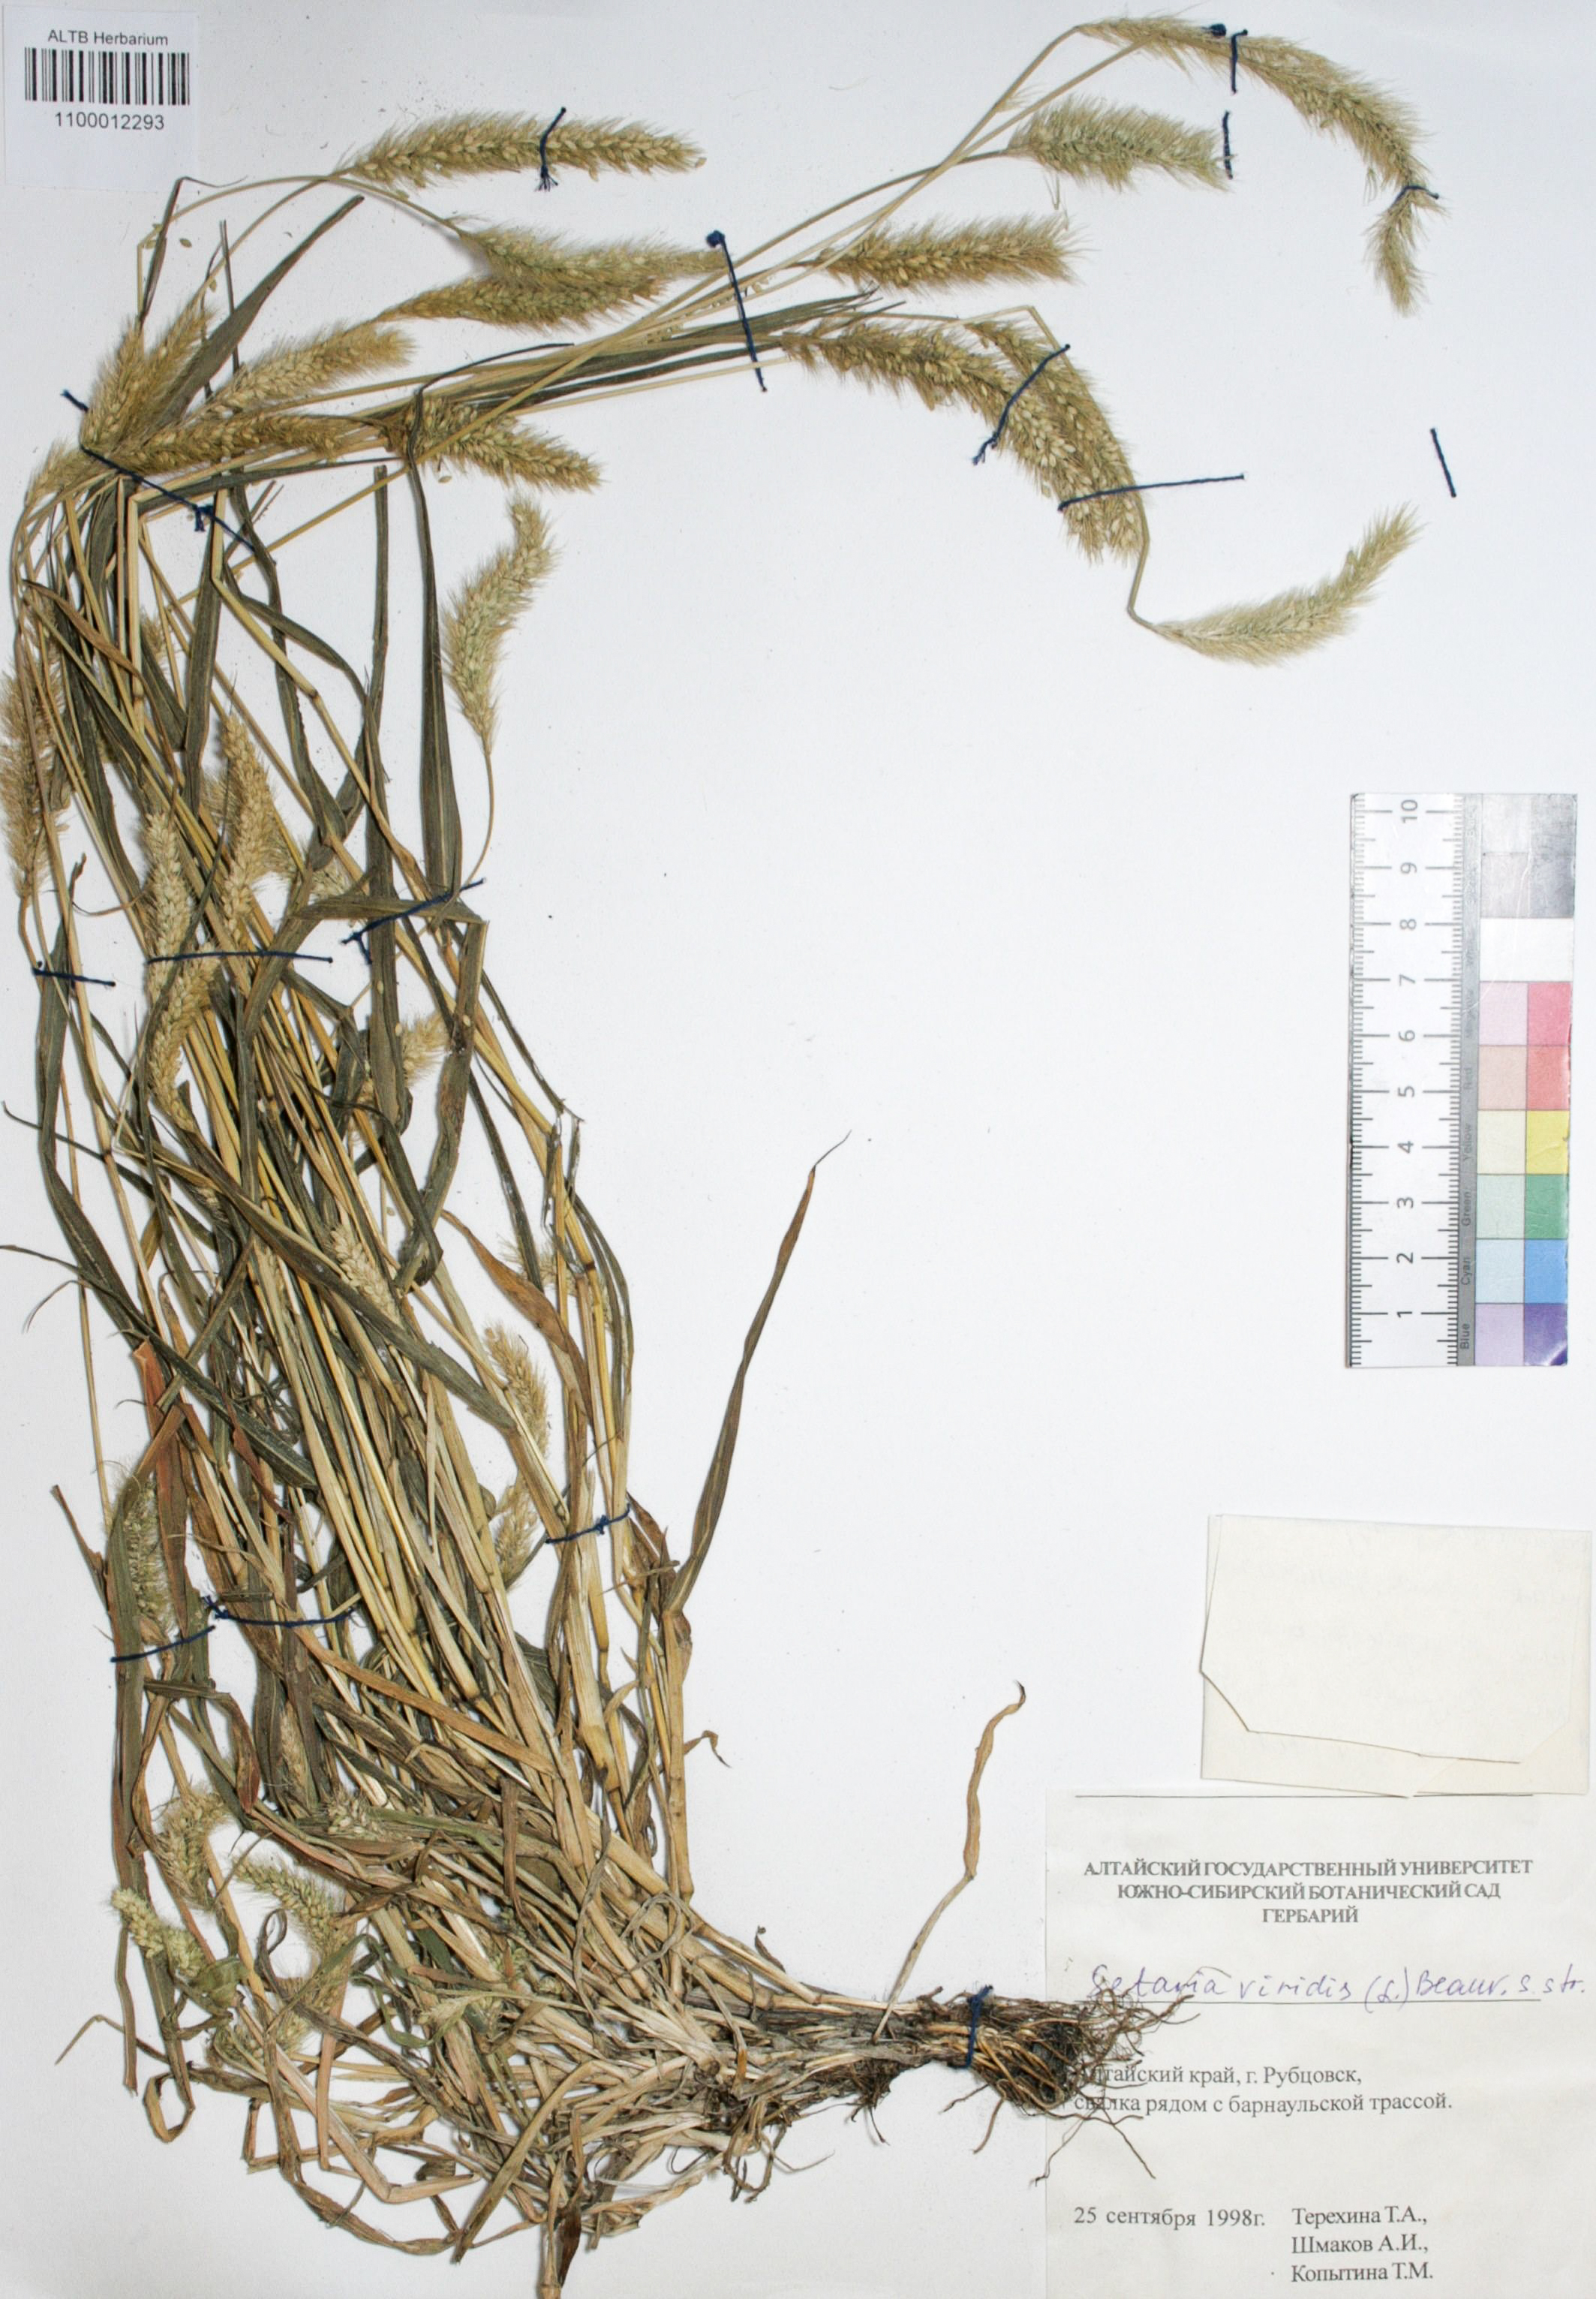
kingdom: Plantae
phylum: Tracheophyta
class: Liliopsida
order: Poales
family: Poaceae
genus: Setaria
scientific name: Setaria viridis
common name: Green bristlegrass
